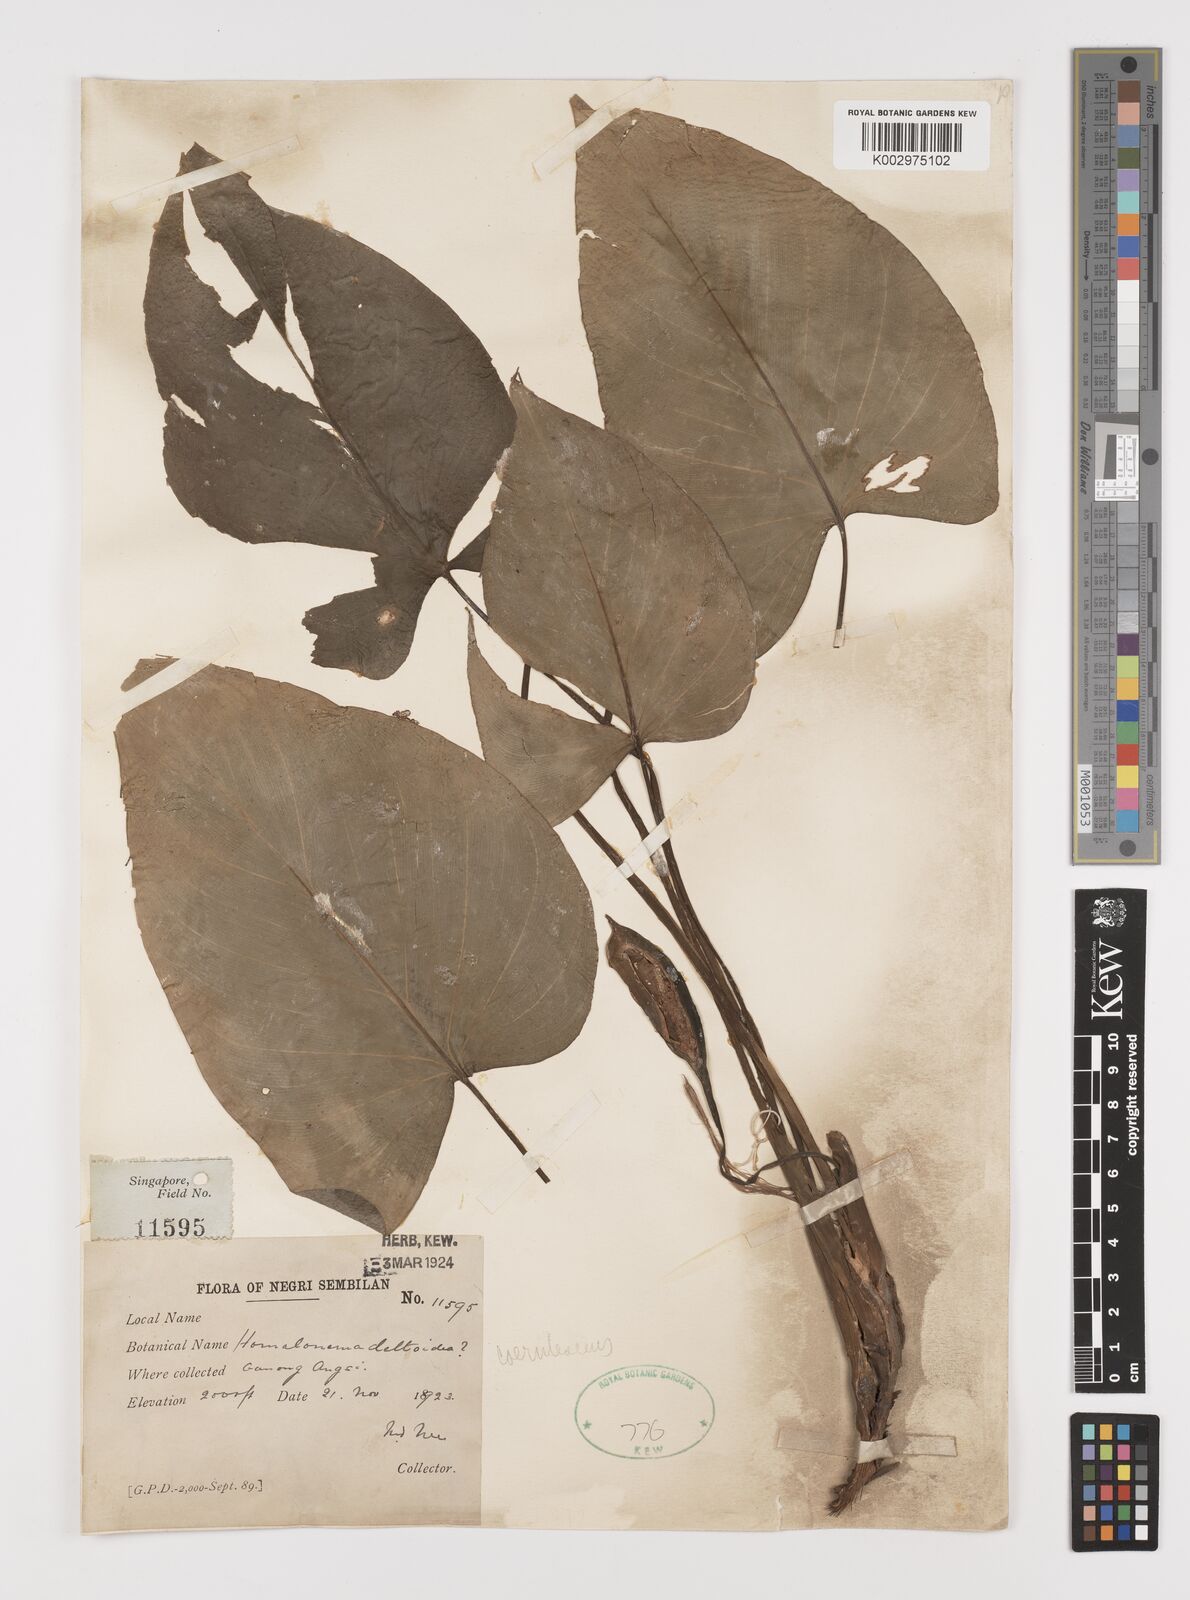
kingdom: Plantae
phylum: Tracheophyta
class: Liliopsida
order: Alismatales
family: Araceae
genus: Homalomena
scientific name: Homalomena pendula
